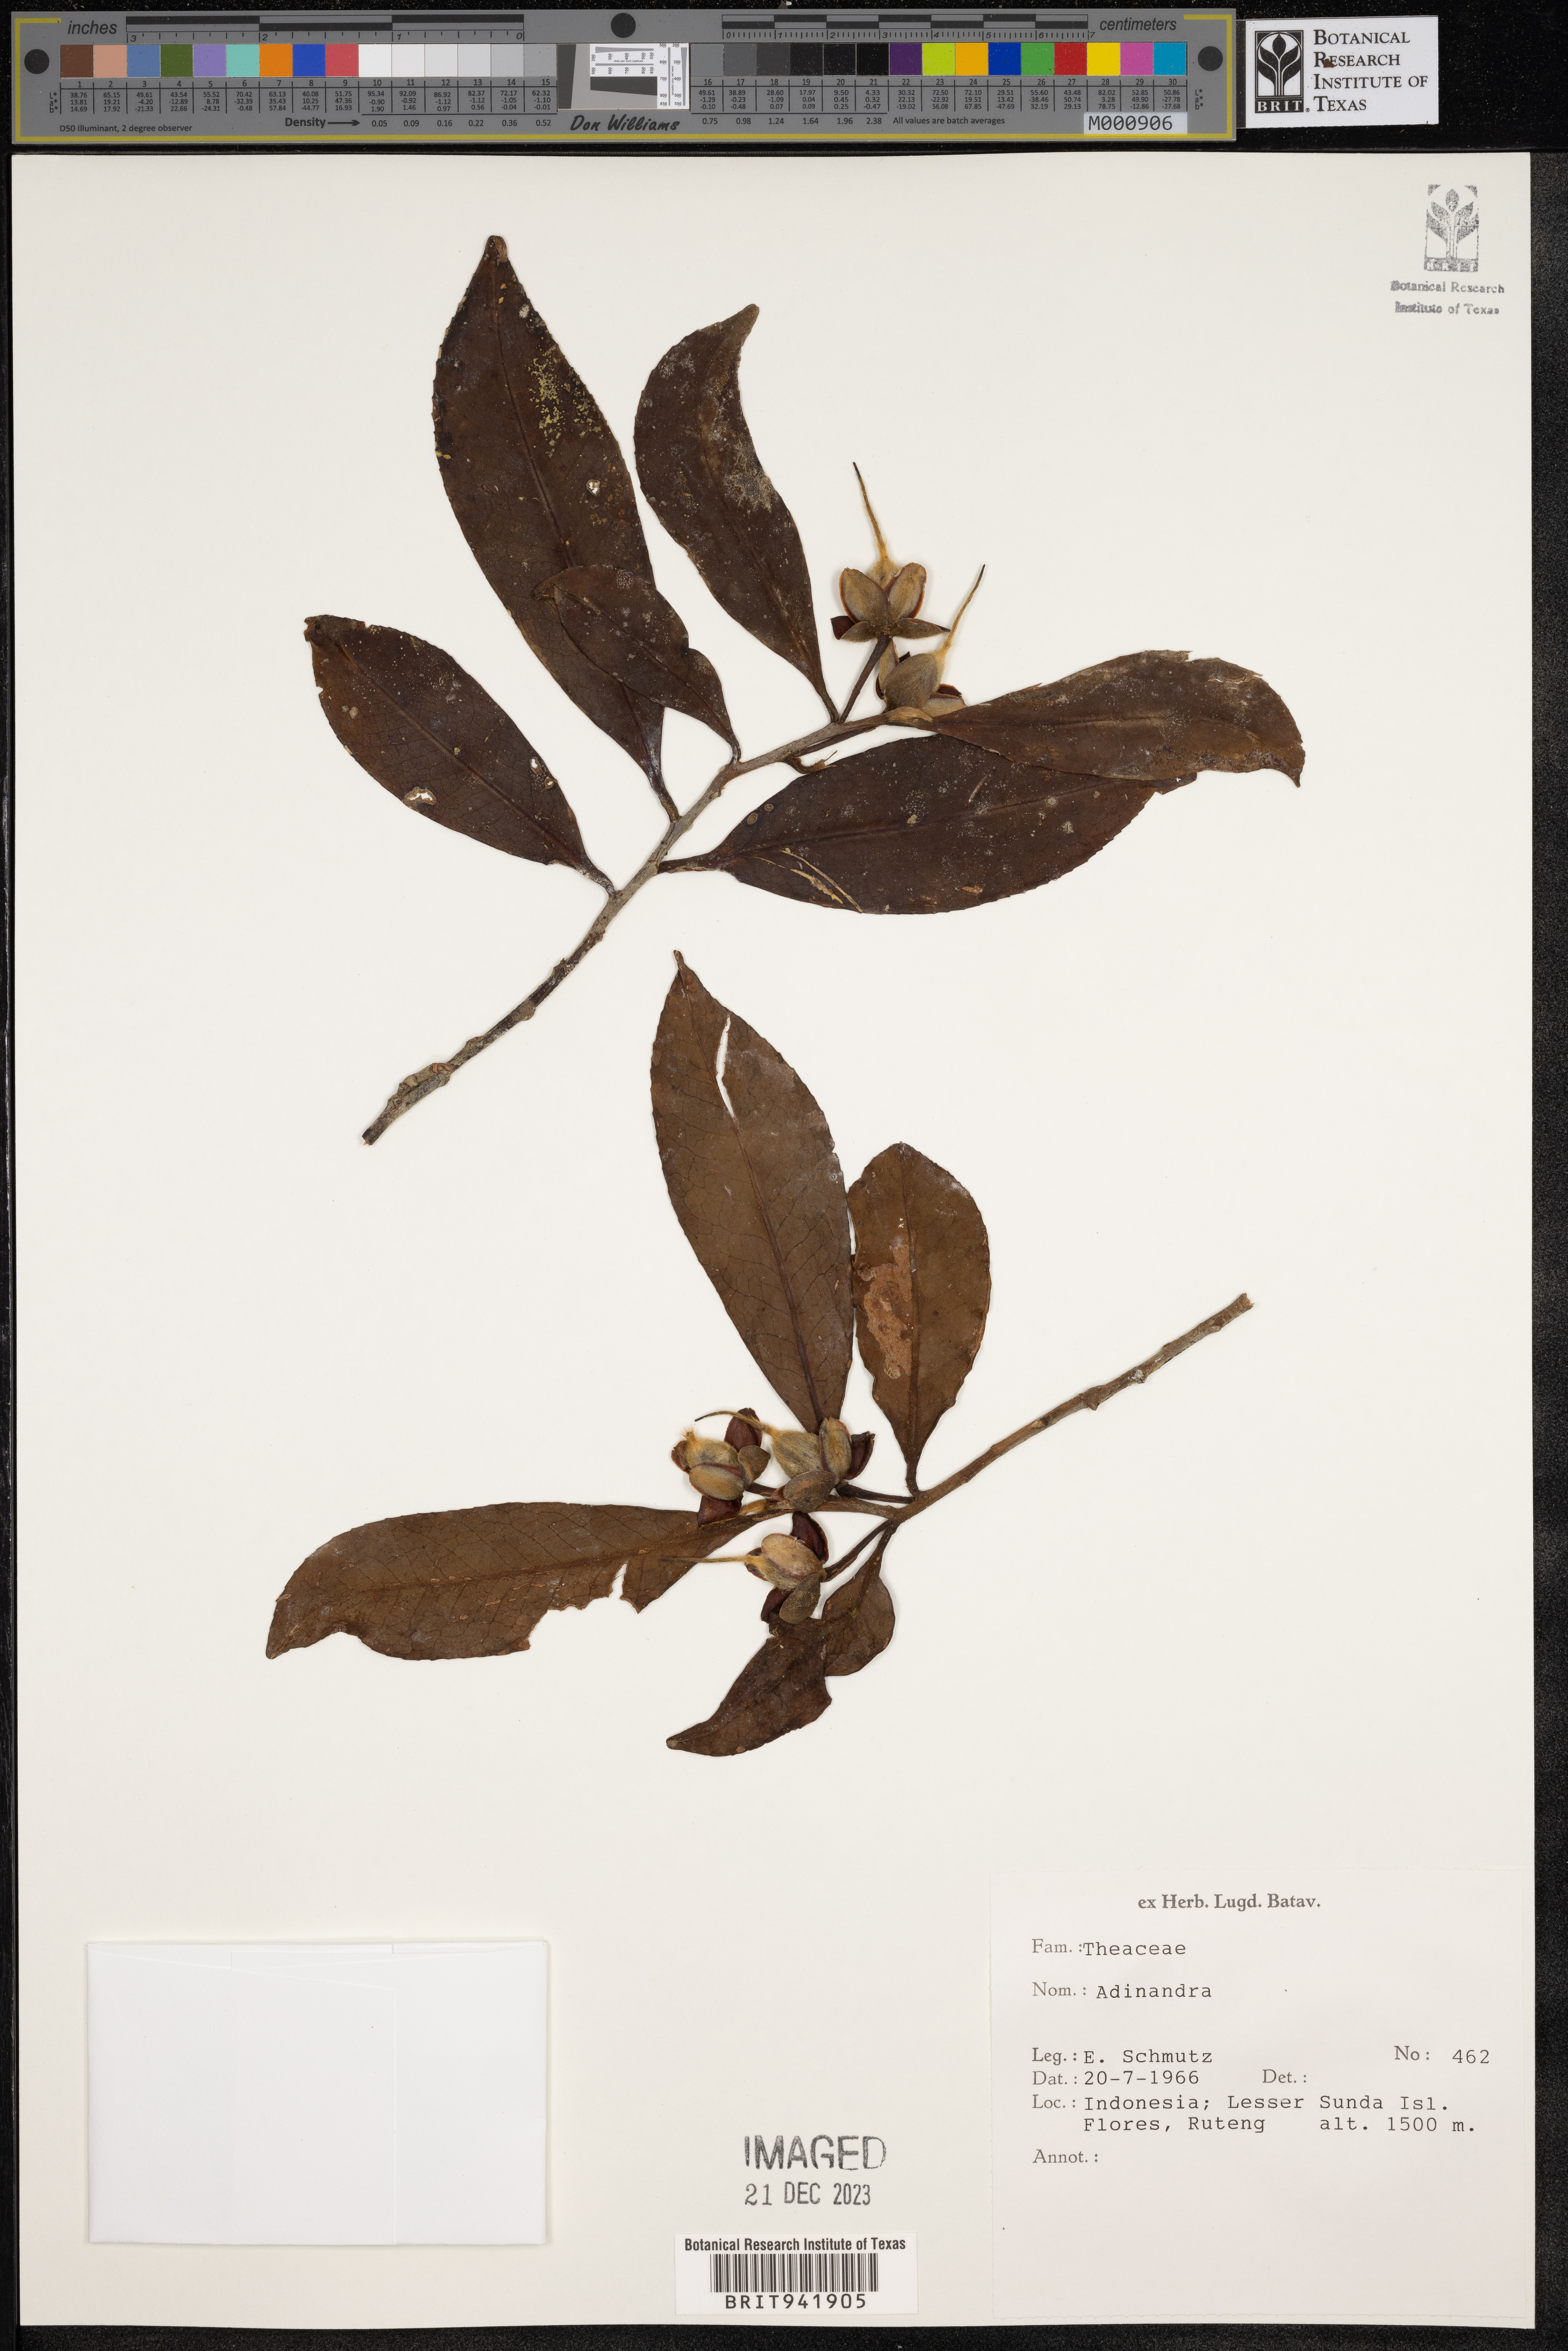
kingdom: Plantae
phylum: Tracheophyta
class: Magnoliopsida
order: Ericales
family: Pentaphylacaceae
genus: Adinandra
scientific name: Adinandra
